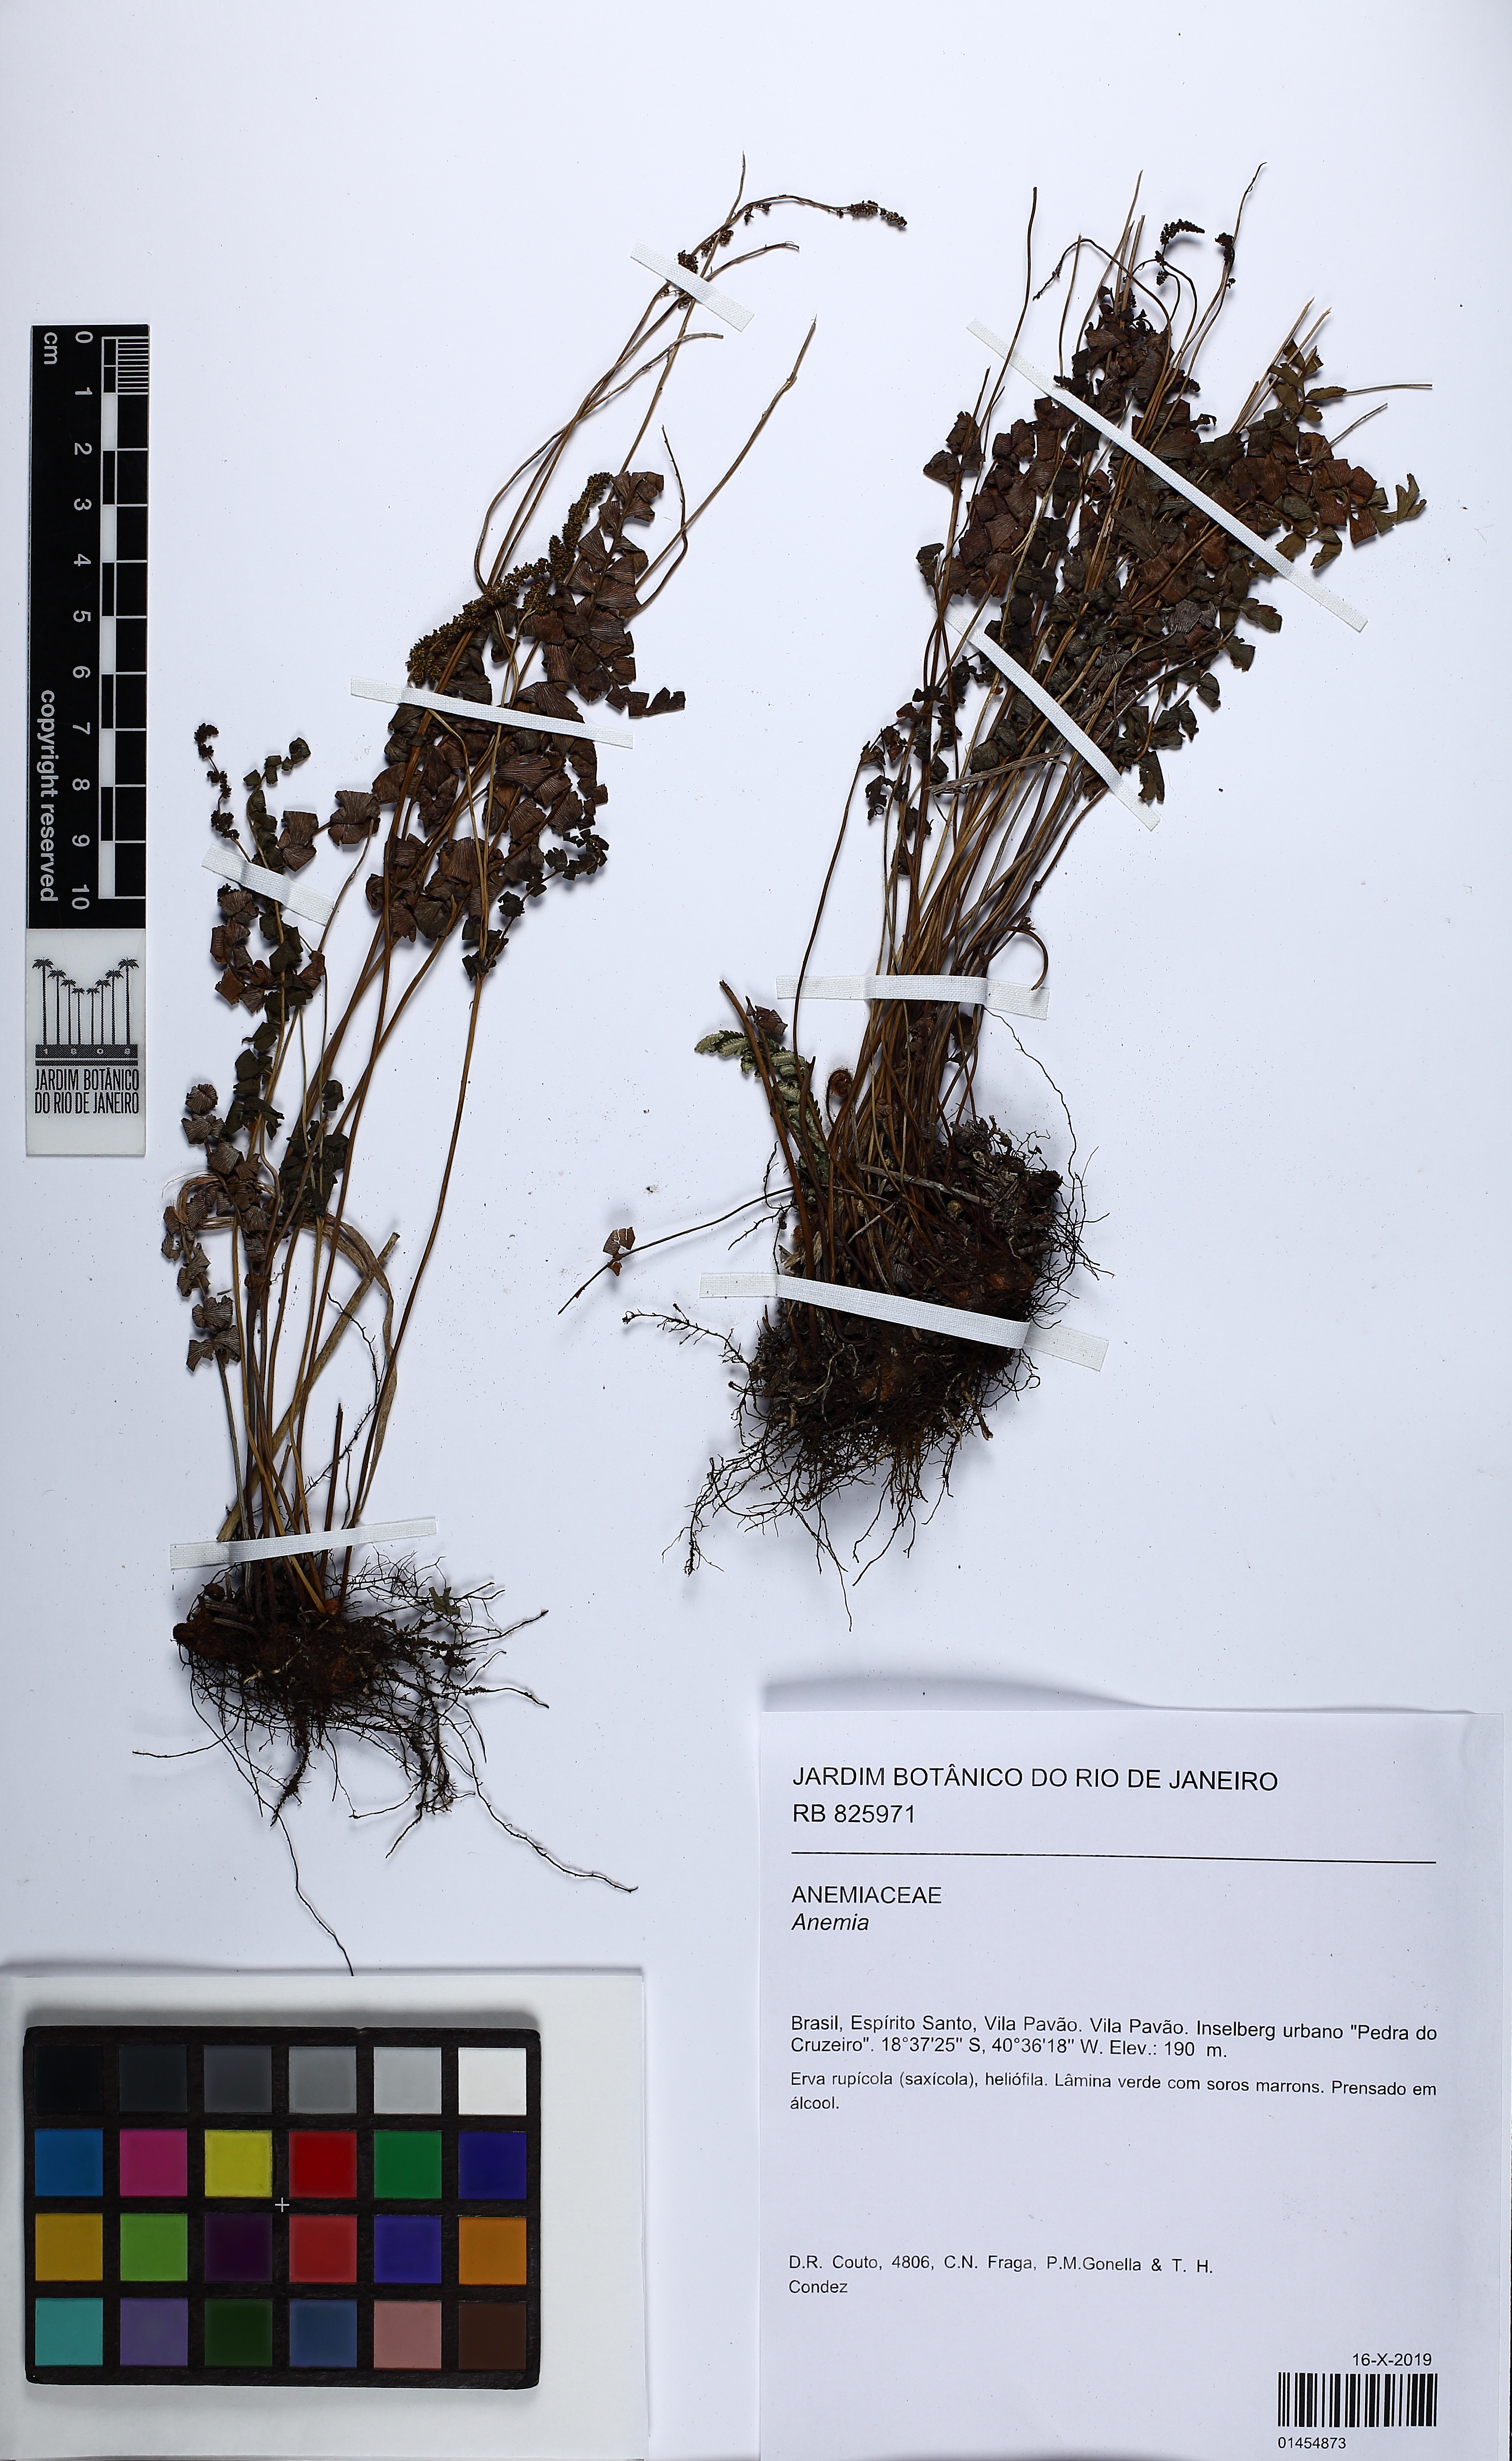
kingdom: Plantae
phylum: Tracheophyta
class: Polypodiopsida
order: Schizaeales
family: Anemiaceae
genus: Anemia
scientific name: Anemia
